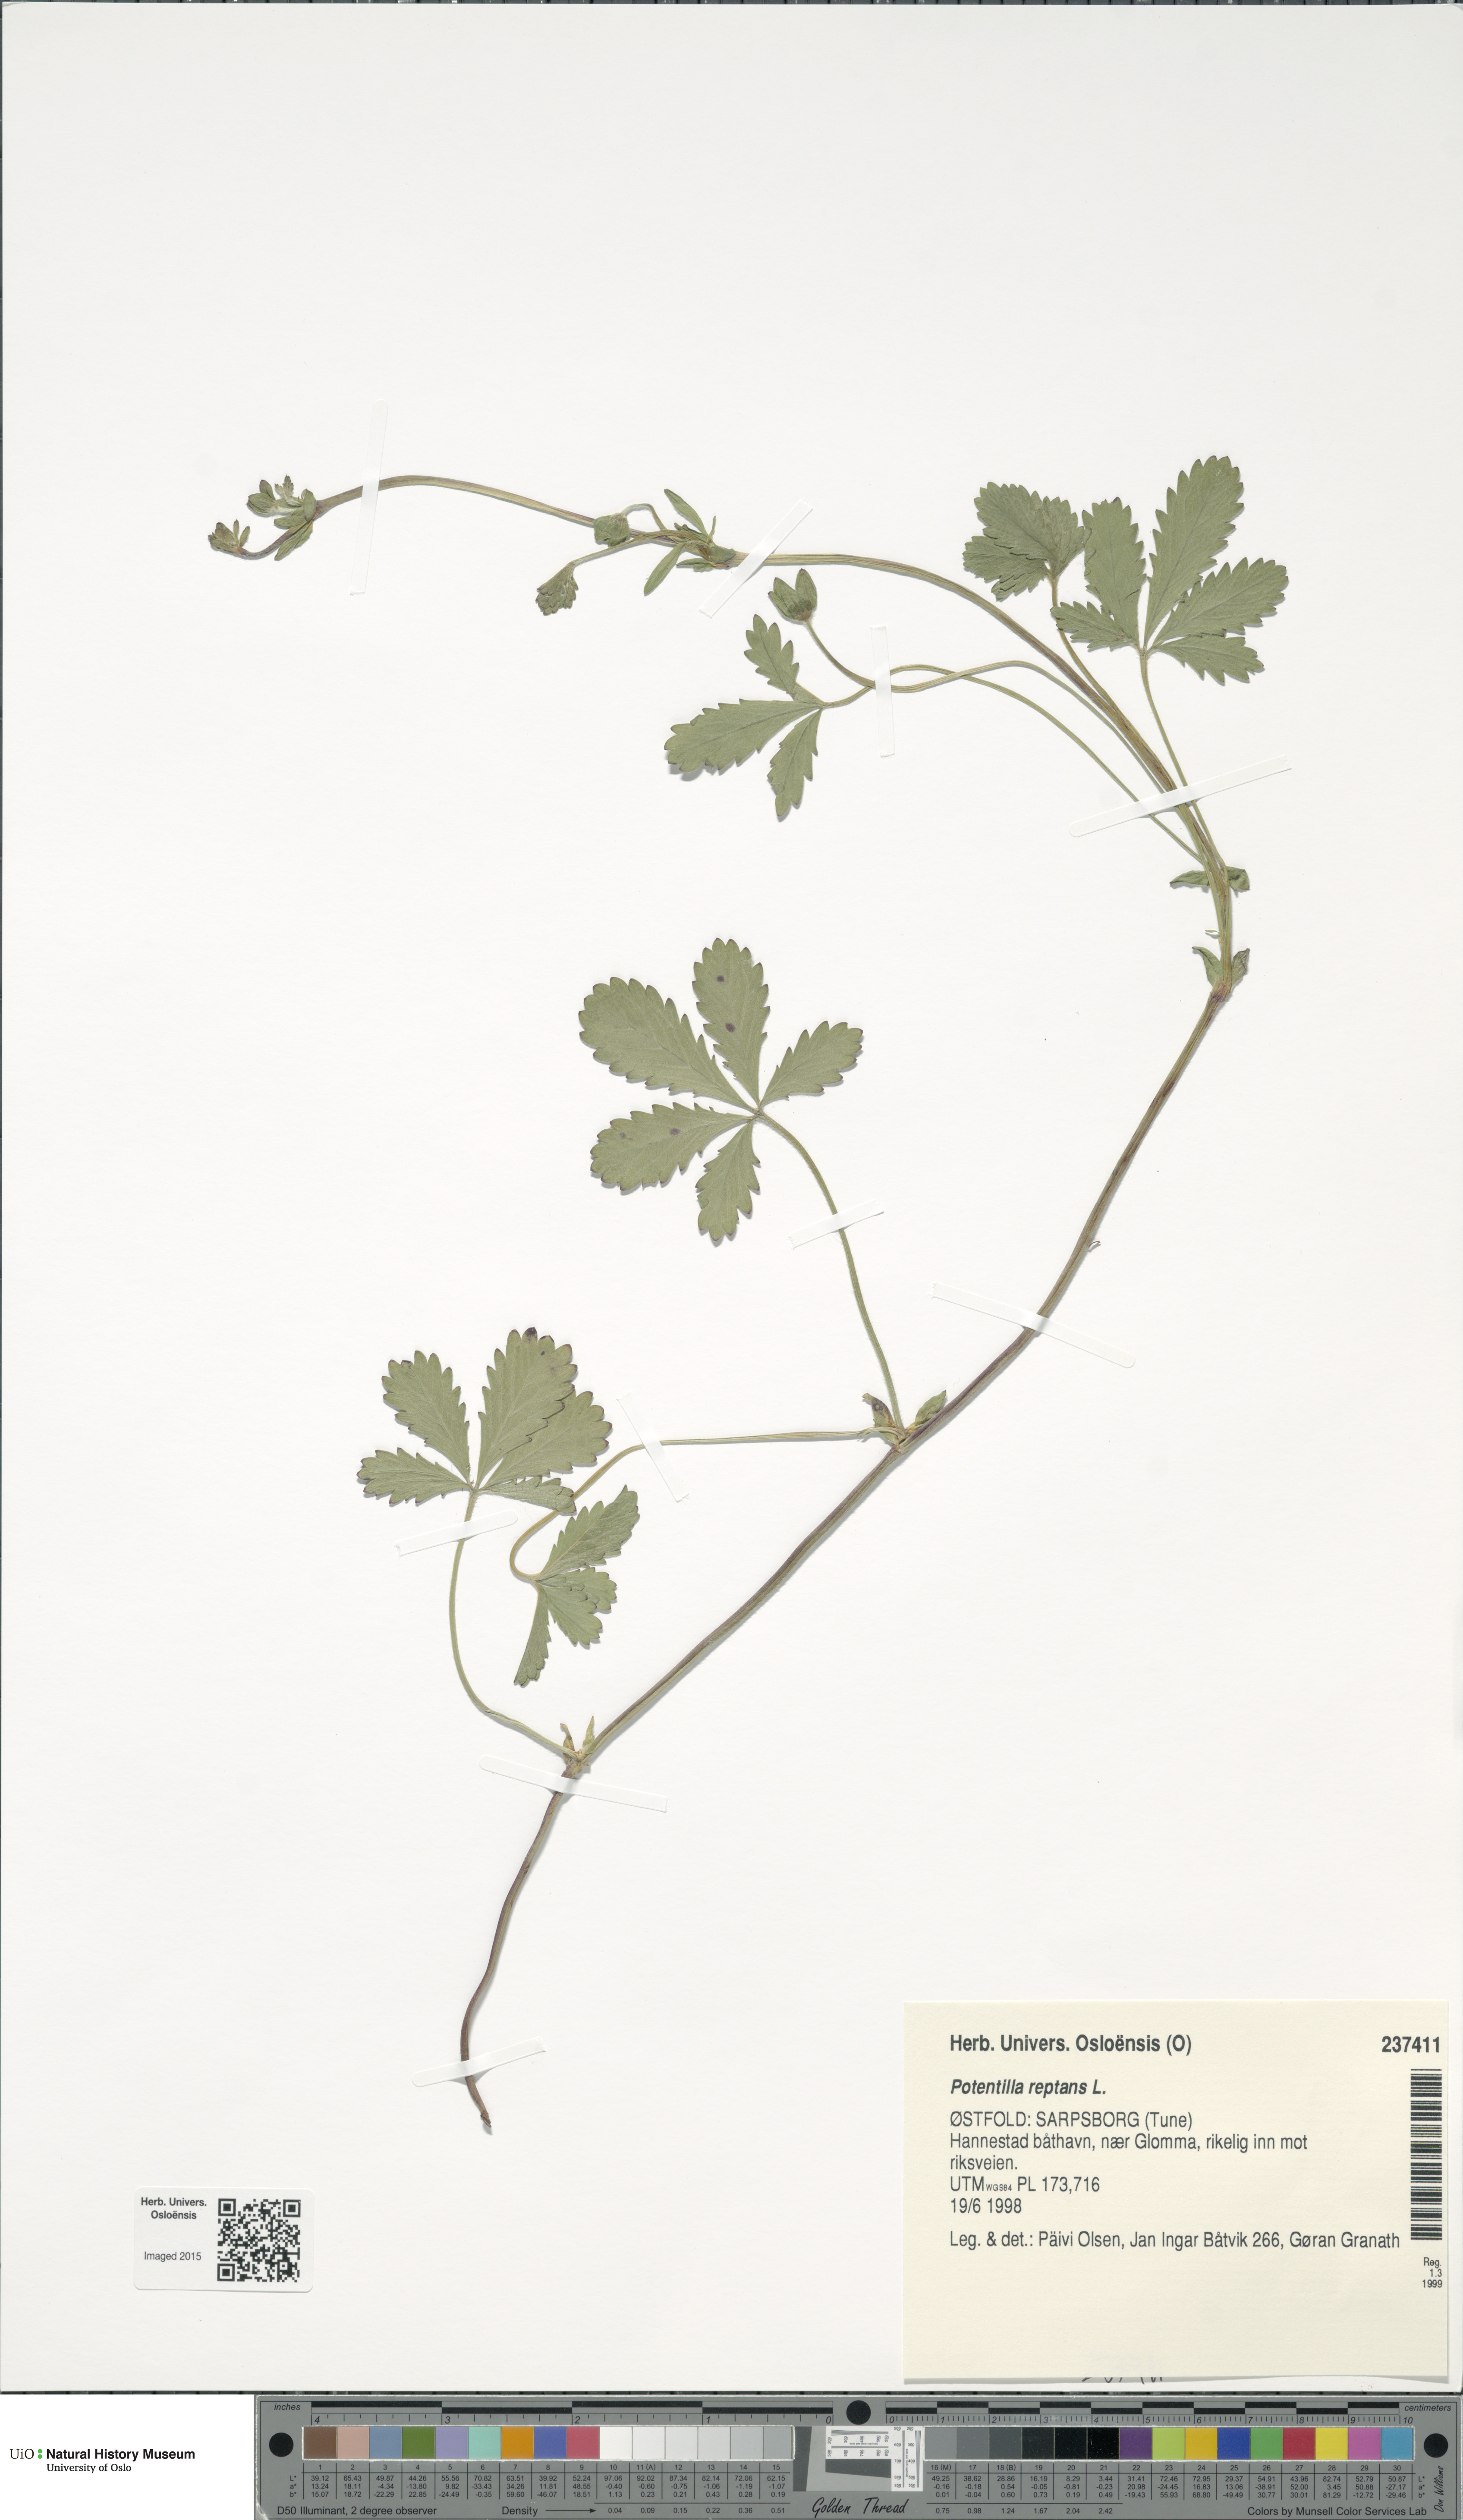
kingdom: Plantae
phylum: Tracheophyta
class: Magnoliopsida
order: Rosales
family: Rosaceae
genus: Potentilla
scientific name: Potentilla reptans
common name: Creeping cinquefoil
